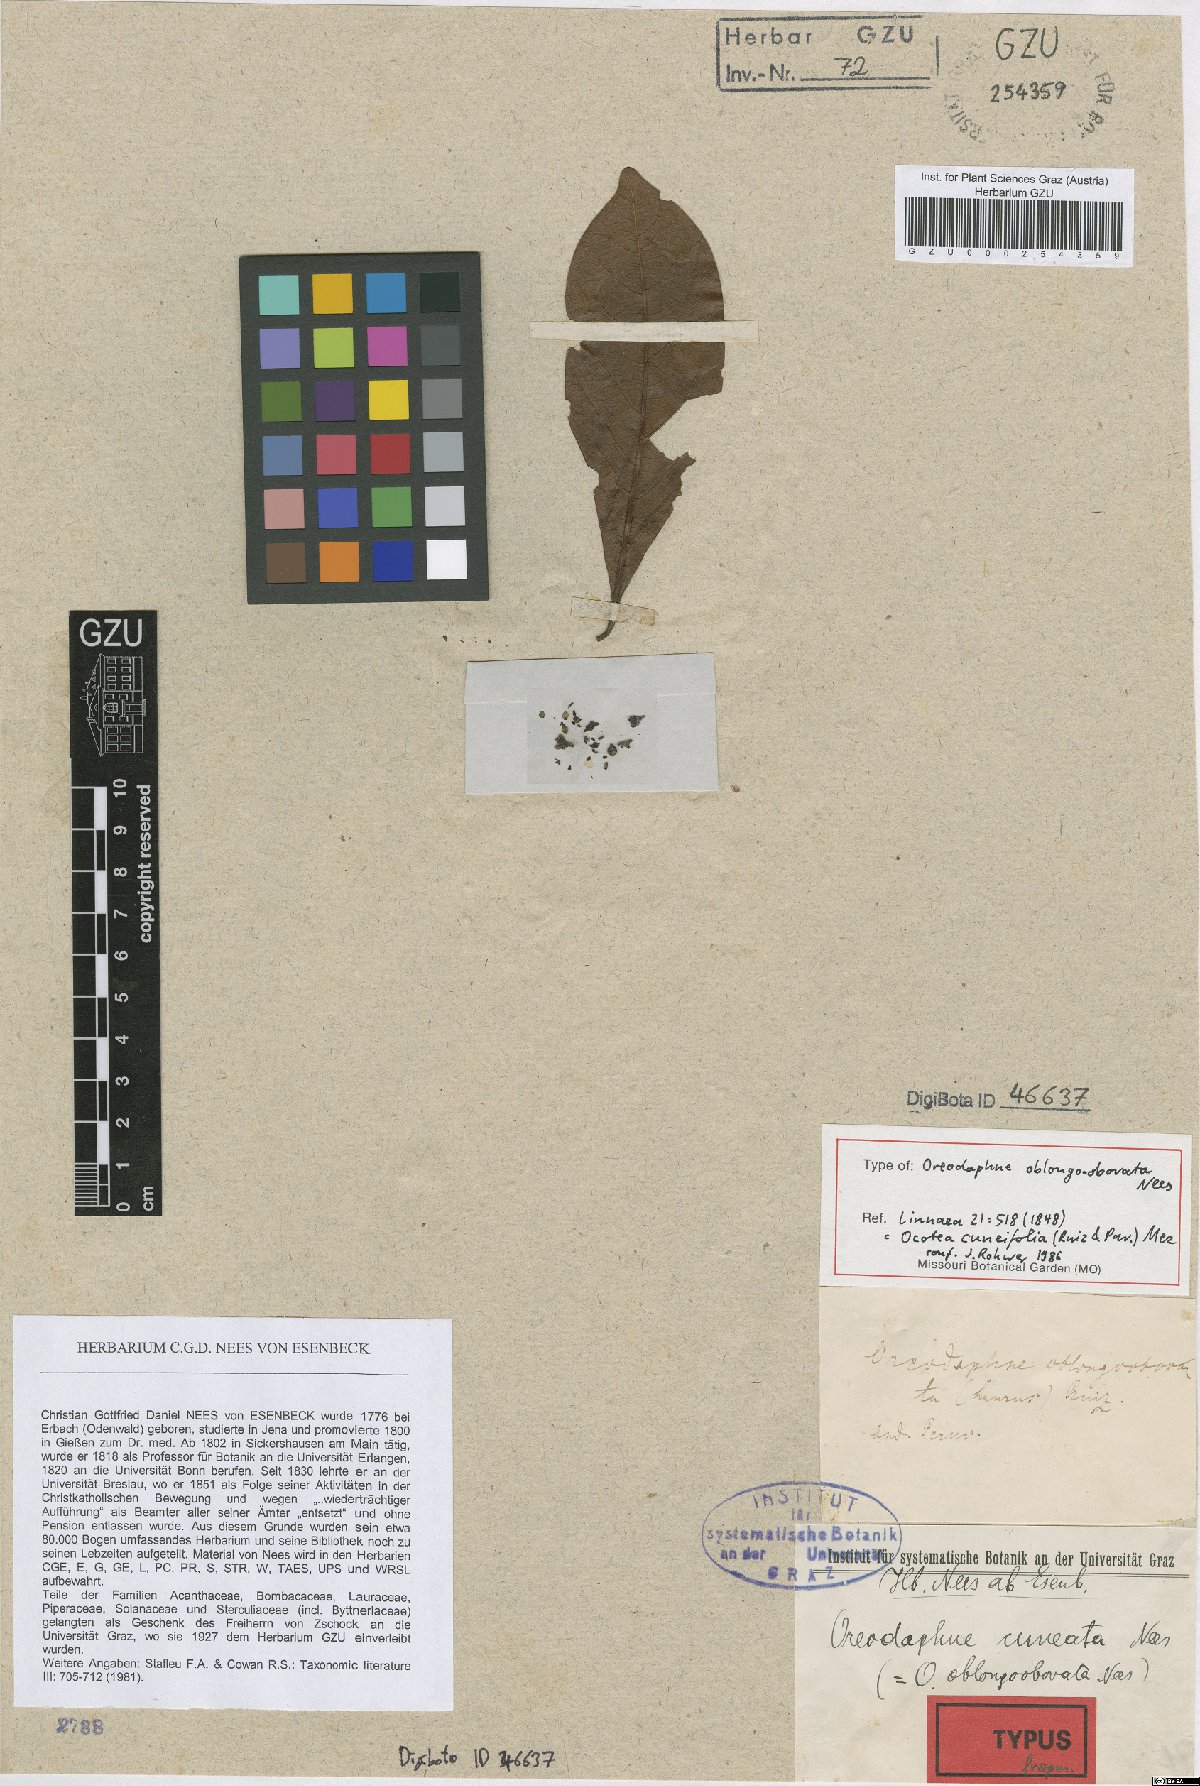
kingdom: Plantae
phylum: Tracheophyta
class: Magnoliopsida
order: Laurales
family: Lauraceae
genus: Ocotea
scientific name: Ocotea cuneifolia
